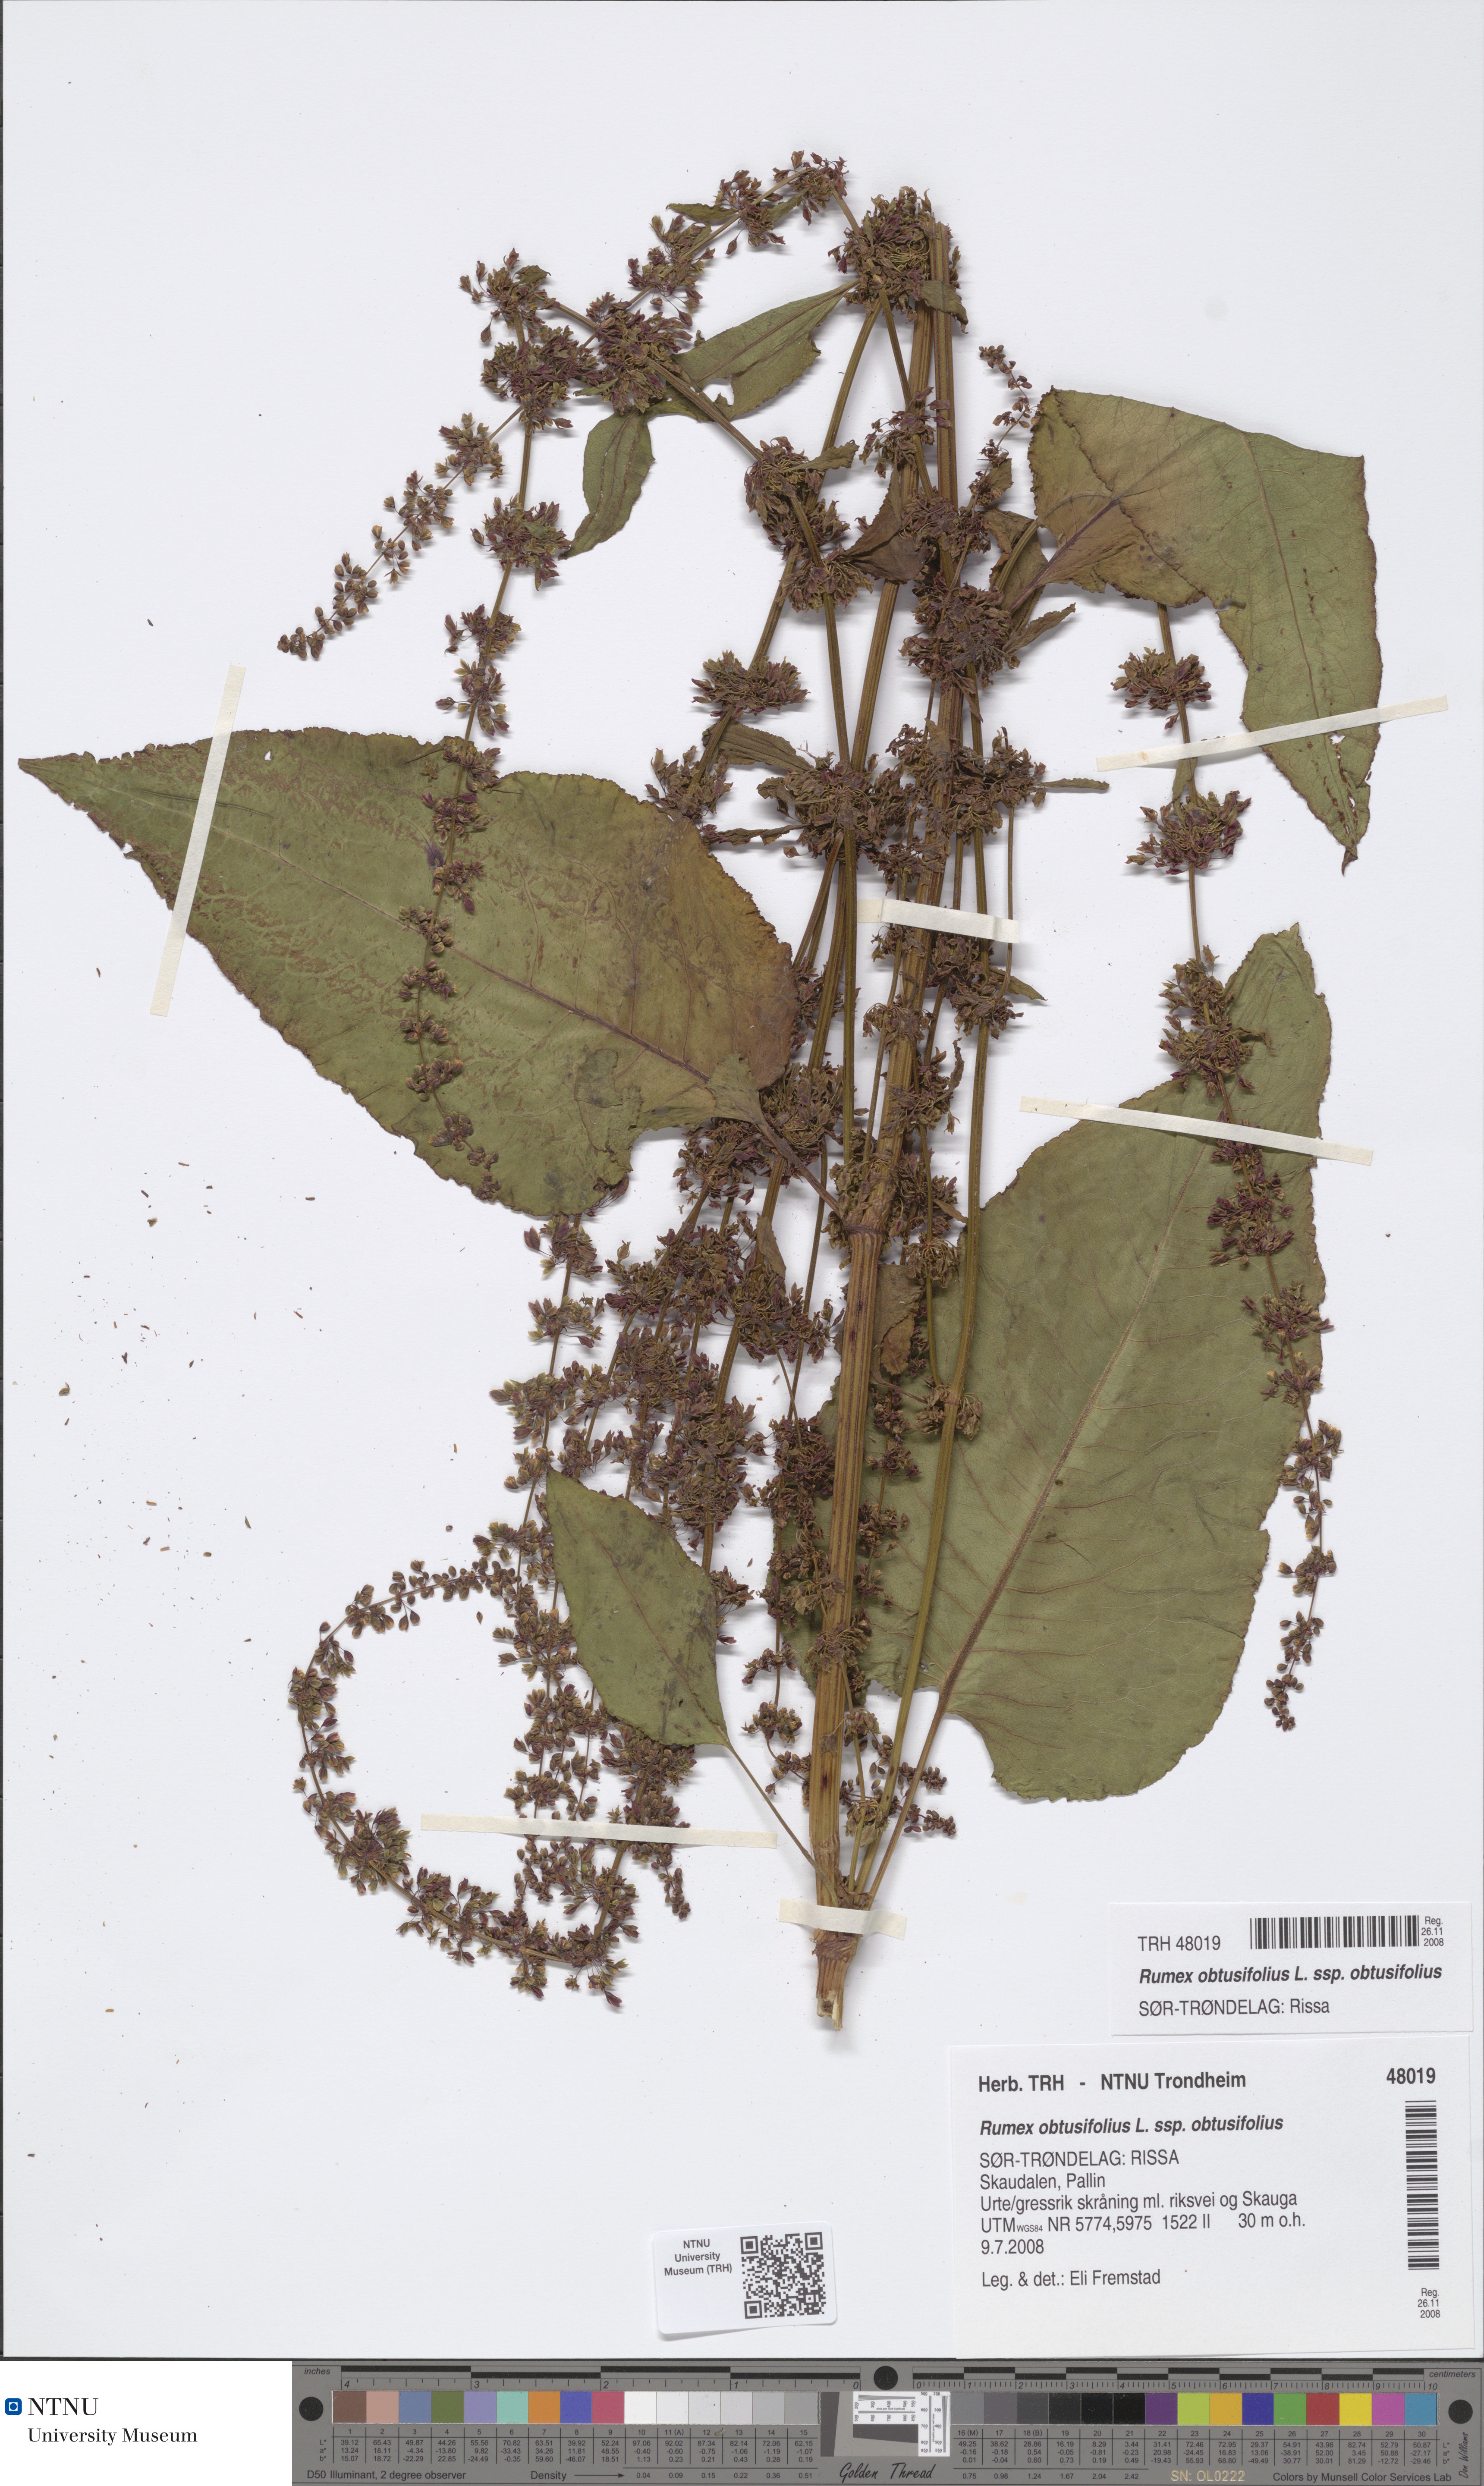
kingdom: Plantae
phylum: Tracheophyta
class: Magnoliopsida
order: Caryophyllales
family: Polygonaceae
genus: Rumex
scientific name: Rumex obtusifolius
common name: Bitter dock
